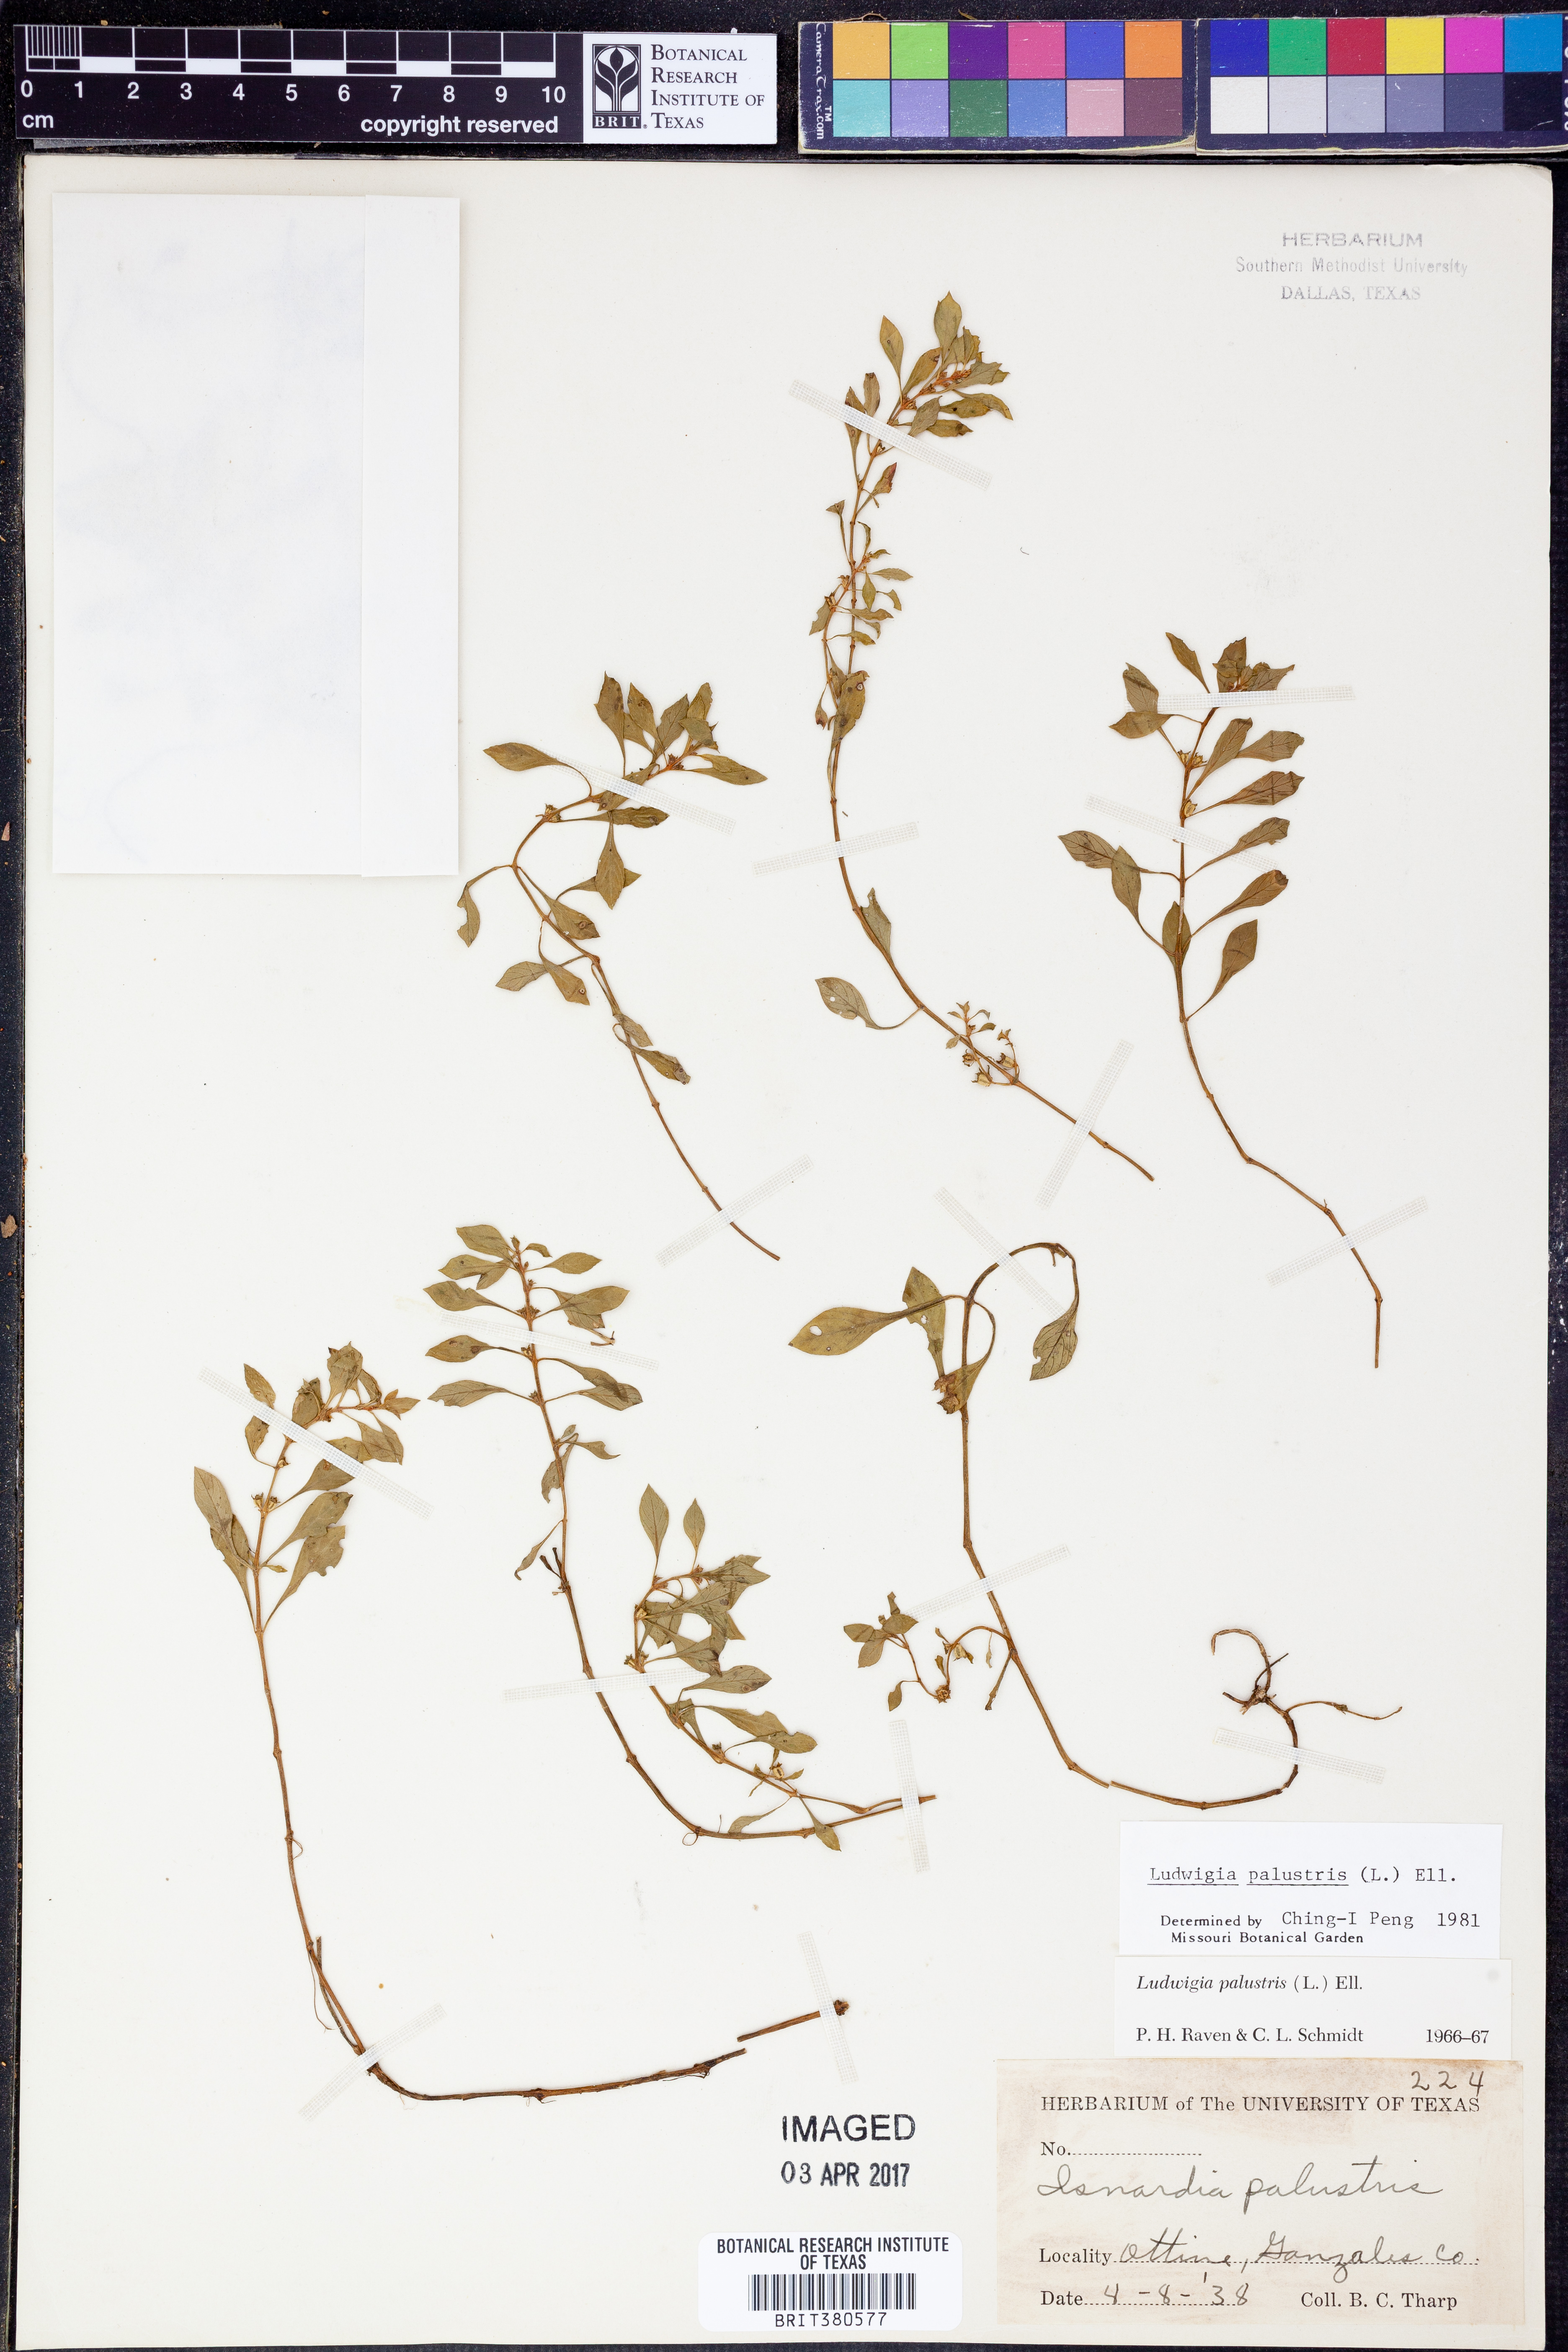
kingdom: Plantae
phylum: Tracheophyta
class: Magnoliopsida
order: Myrtales
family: Onagraceae
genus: Ludwigia
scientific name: Ludwigia palustris
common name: Hampshire-purslane
